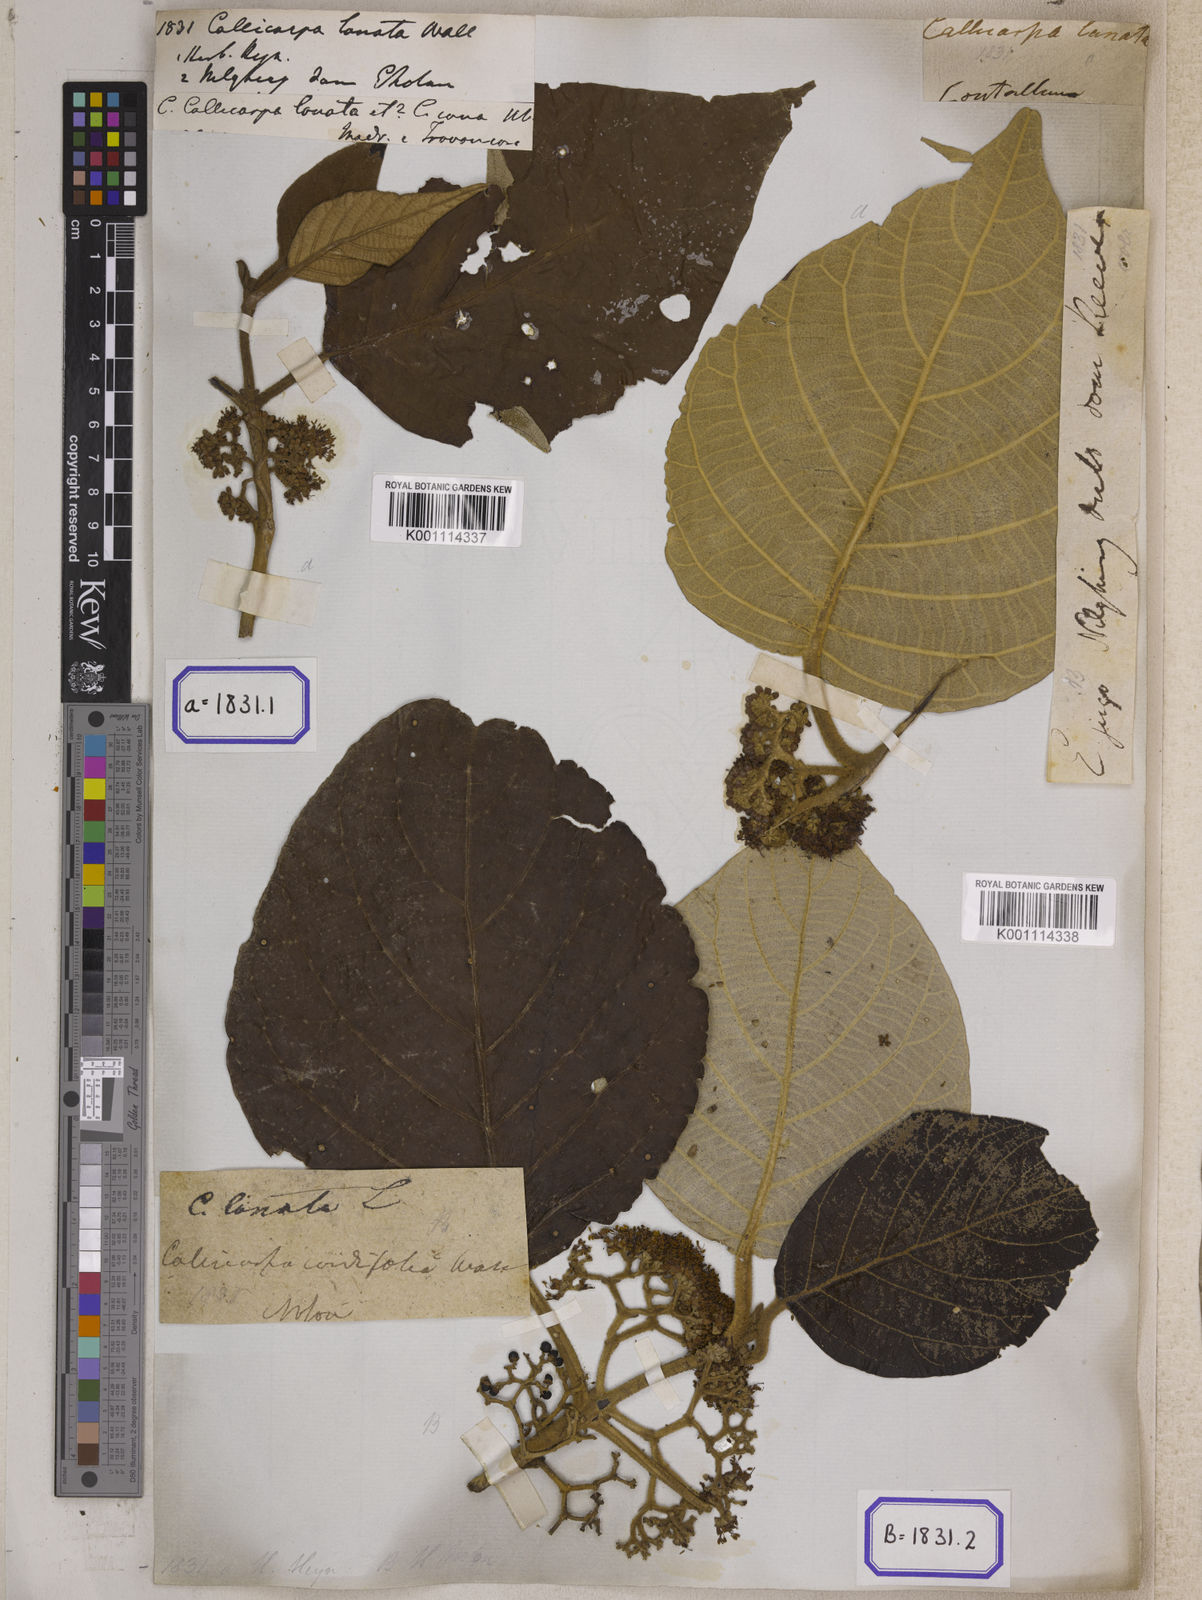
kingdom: Plantae
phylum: Tracheophyta
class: Magnoliopsida
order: Lamiales
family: Lamiaceae
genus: Callicarpa
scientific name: Callicarpa
